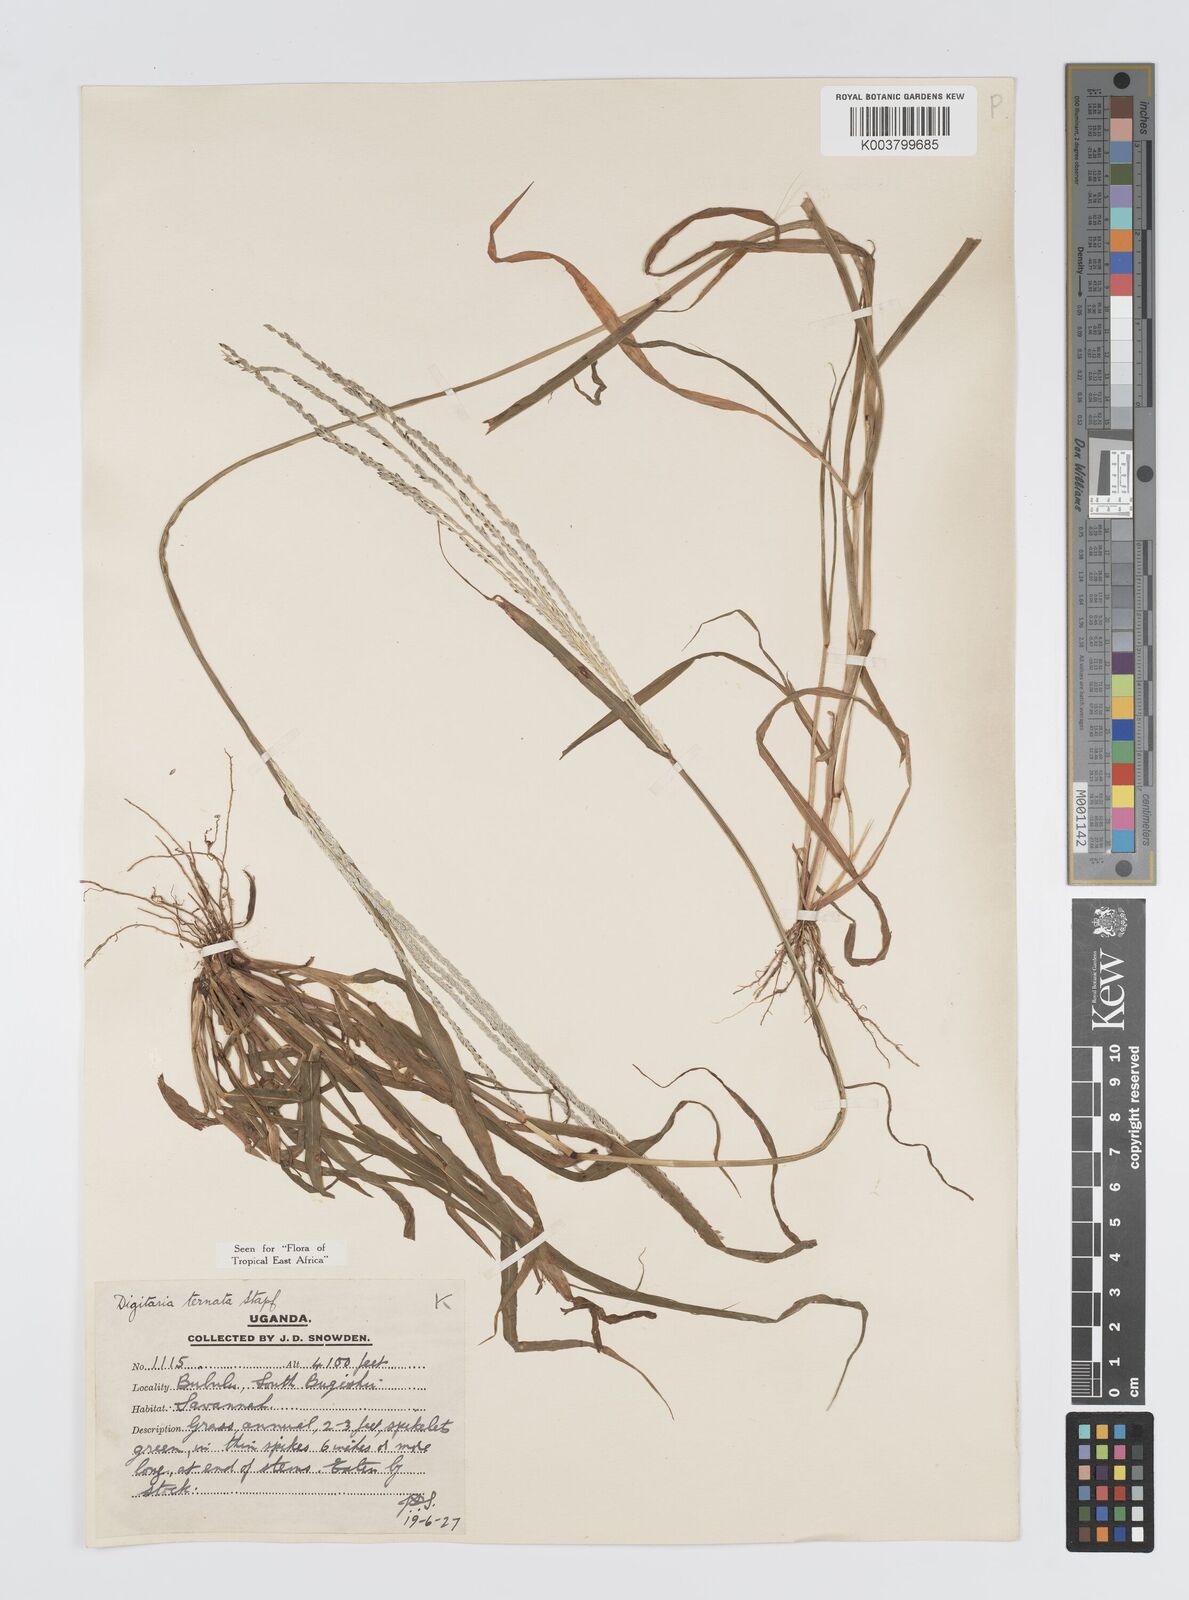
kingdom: Plantae
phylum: Tracheophyta
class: Liliopsida
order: Poales
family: Poaceae
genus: Digitaria
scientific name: Digitaria ternata
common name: Blackseed crabgrass
